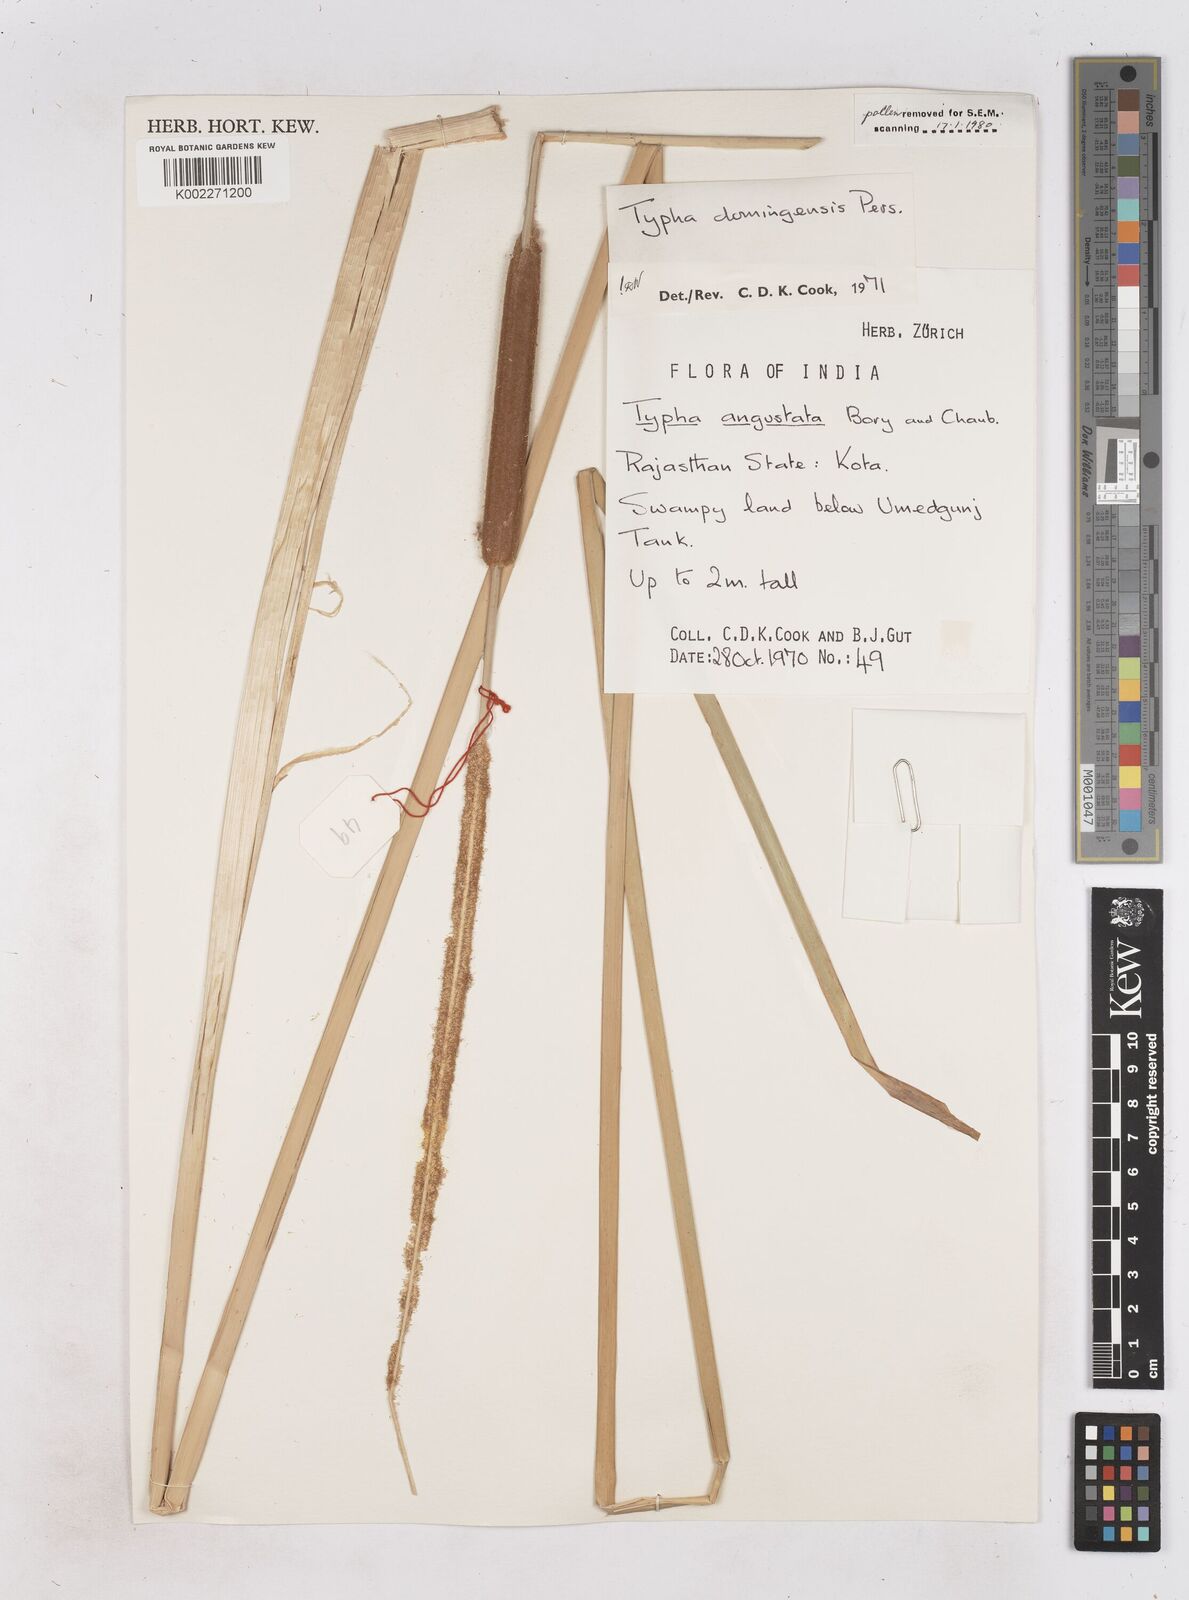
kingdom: Plantae
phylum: Tracheophyta
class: Liliopsida
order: Poales
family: Typhaceae
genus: Typha
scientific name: Typha domingensis
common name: Southern cattail
